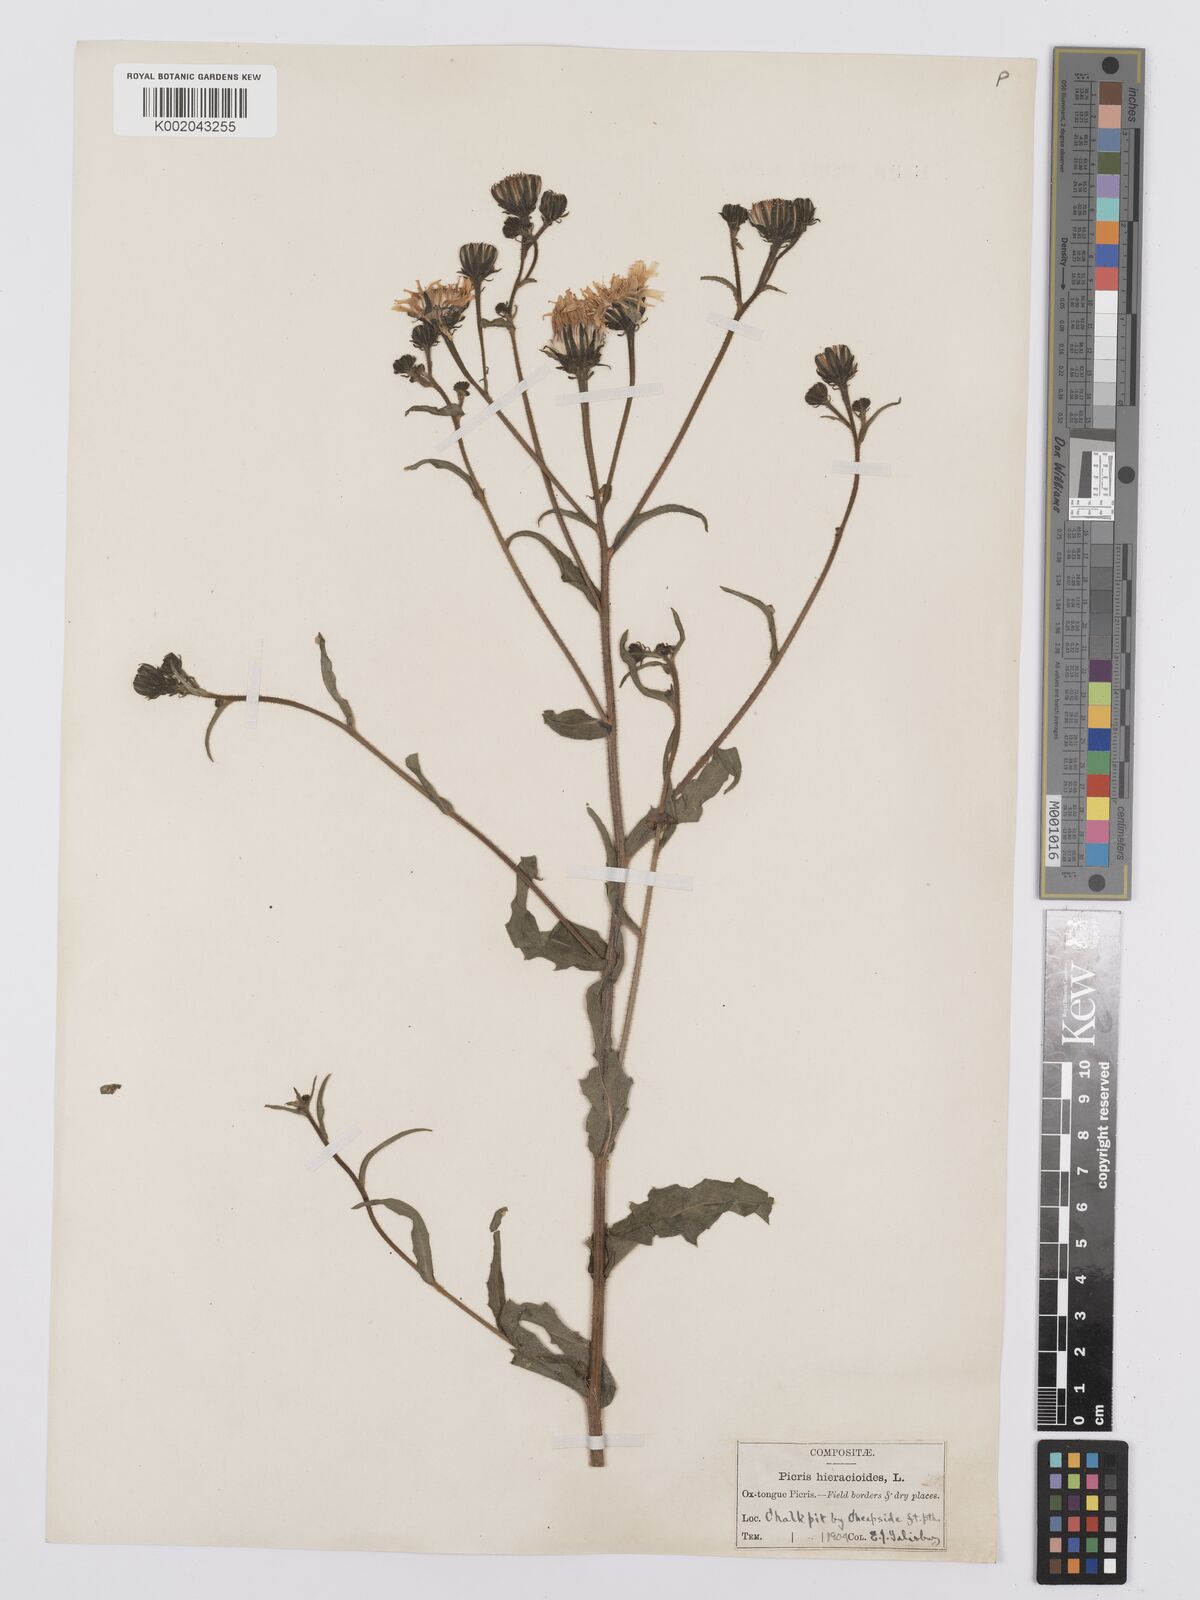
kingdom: Plantae
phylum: Tracheophyta
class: Magnoliopsida
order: Asterales
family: Asteraceae
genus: Picris
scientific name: Picris hieracioides
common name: Hawkweed oxtongue
